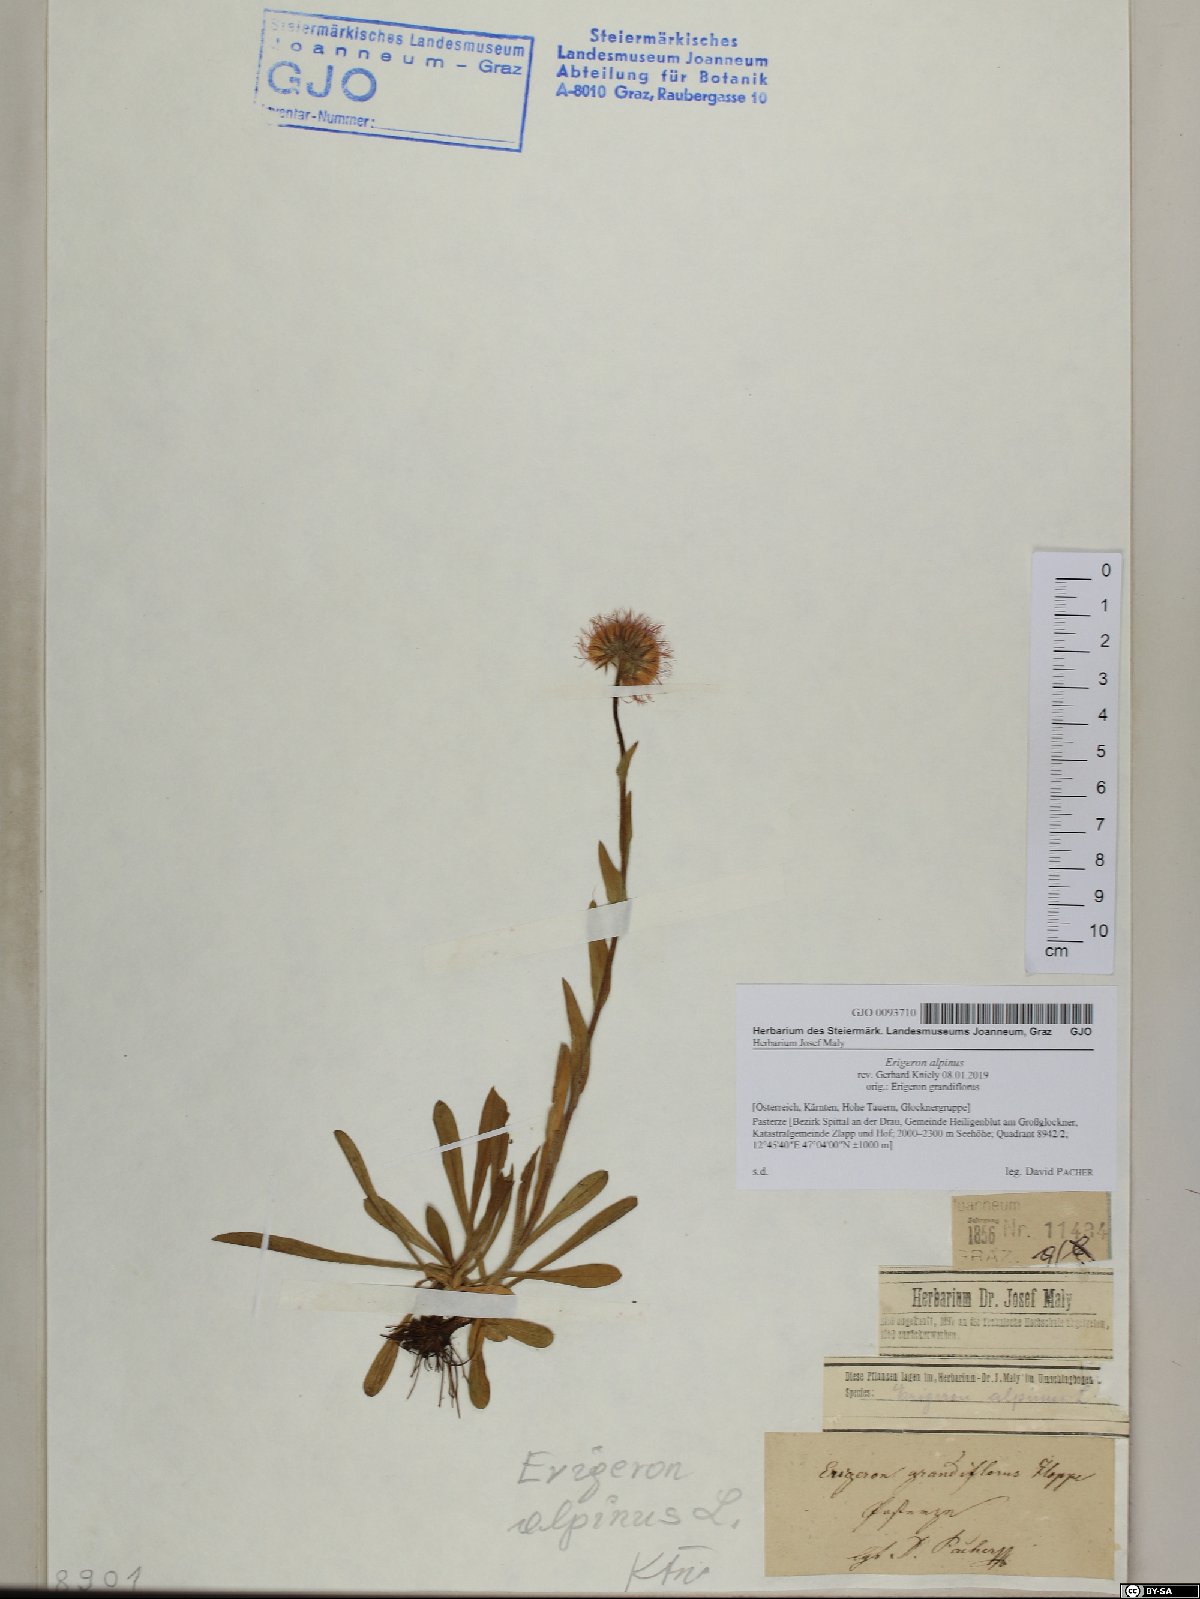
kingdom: Plantae
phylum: Tracheophyta
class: Magnoliopsida
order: Asterales
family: Asteraceae
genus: Erigeron
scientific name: Erigeron alpinus
